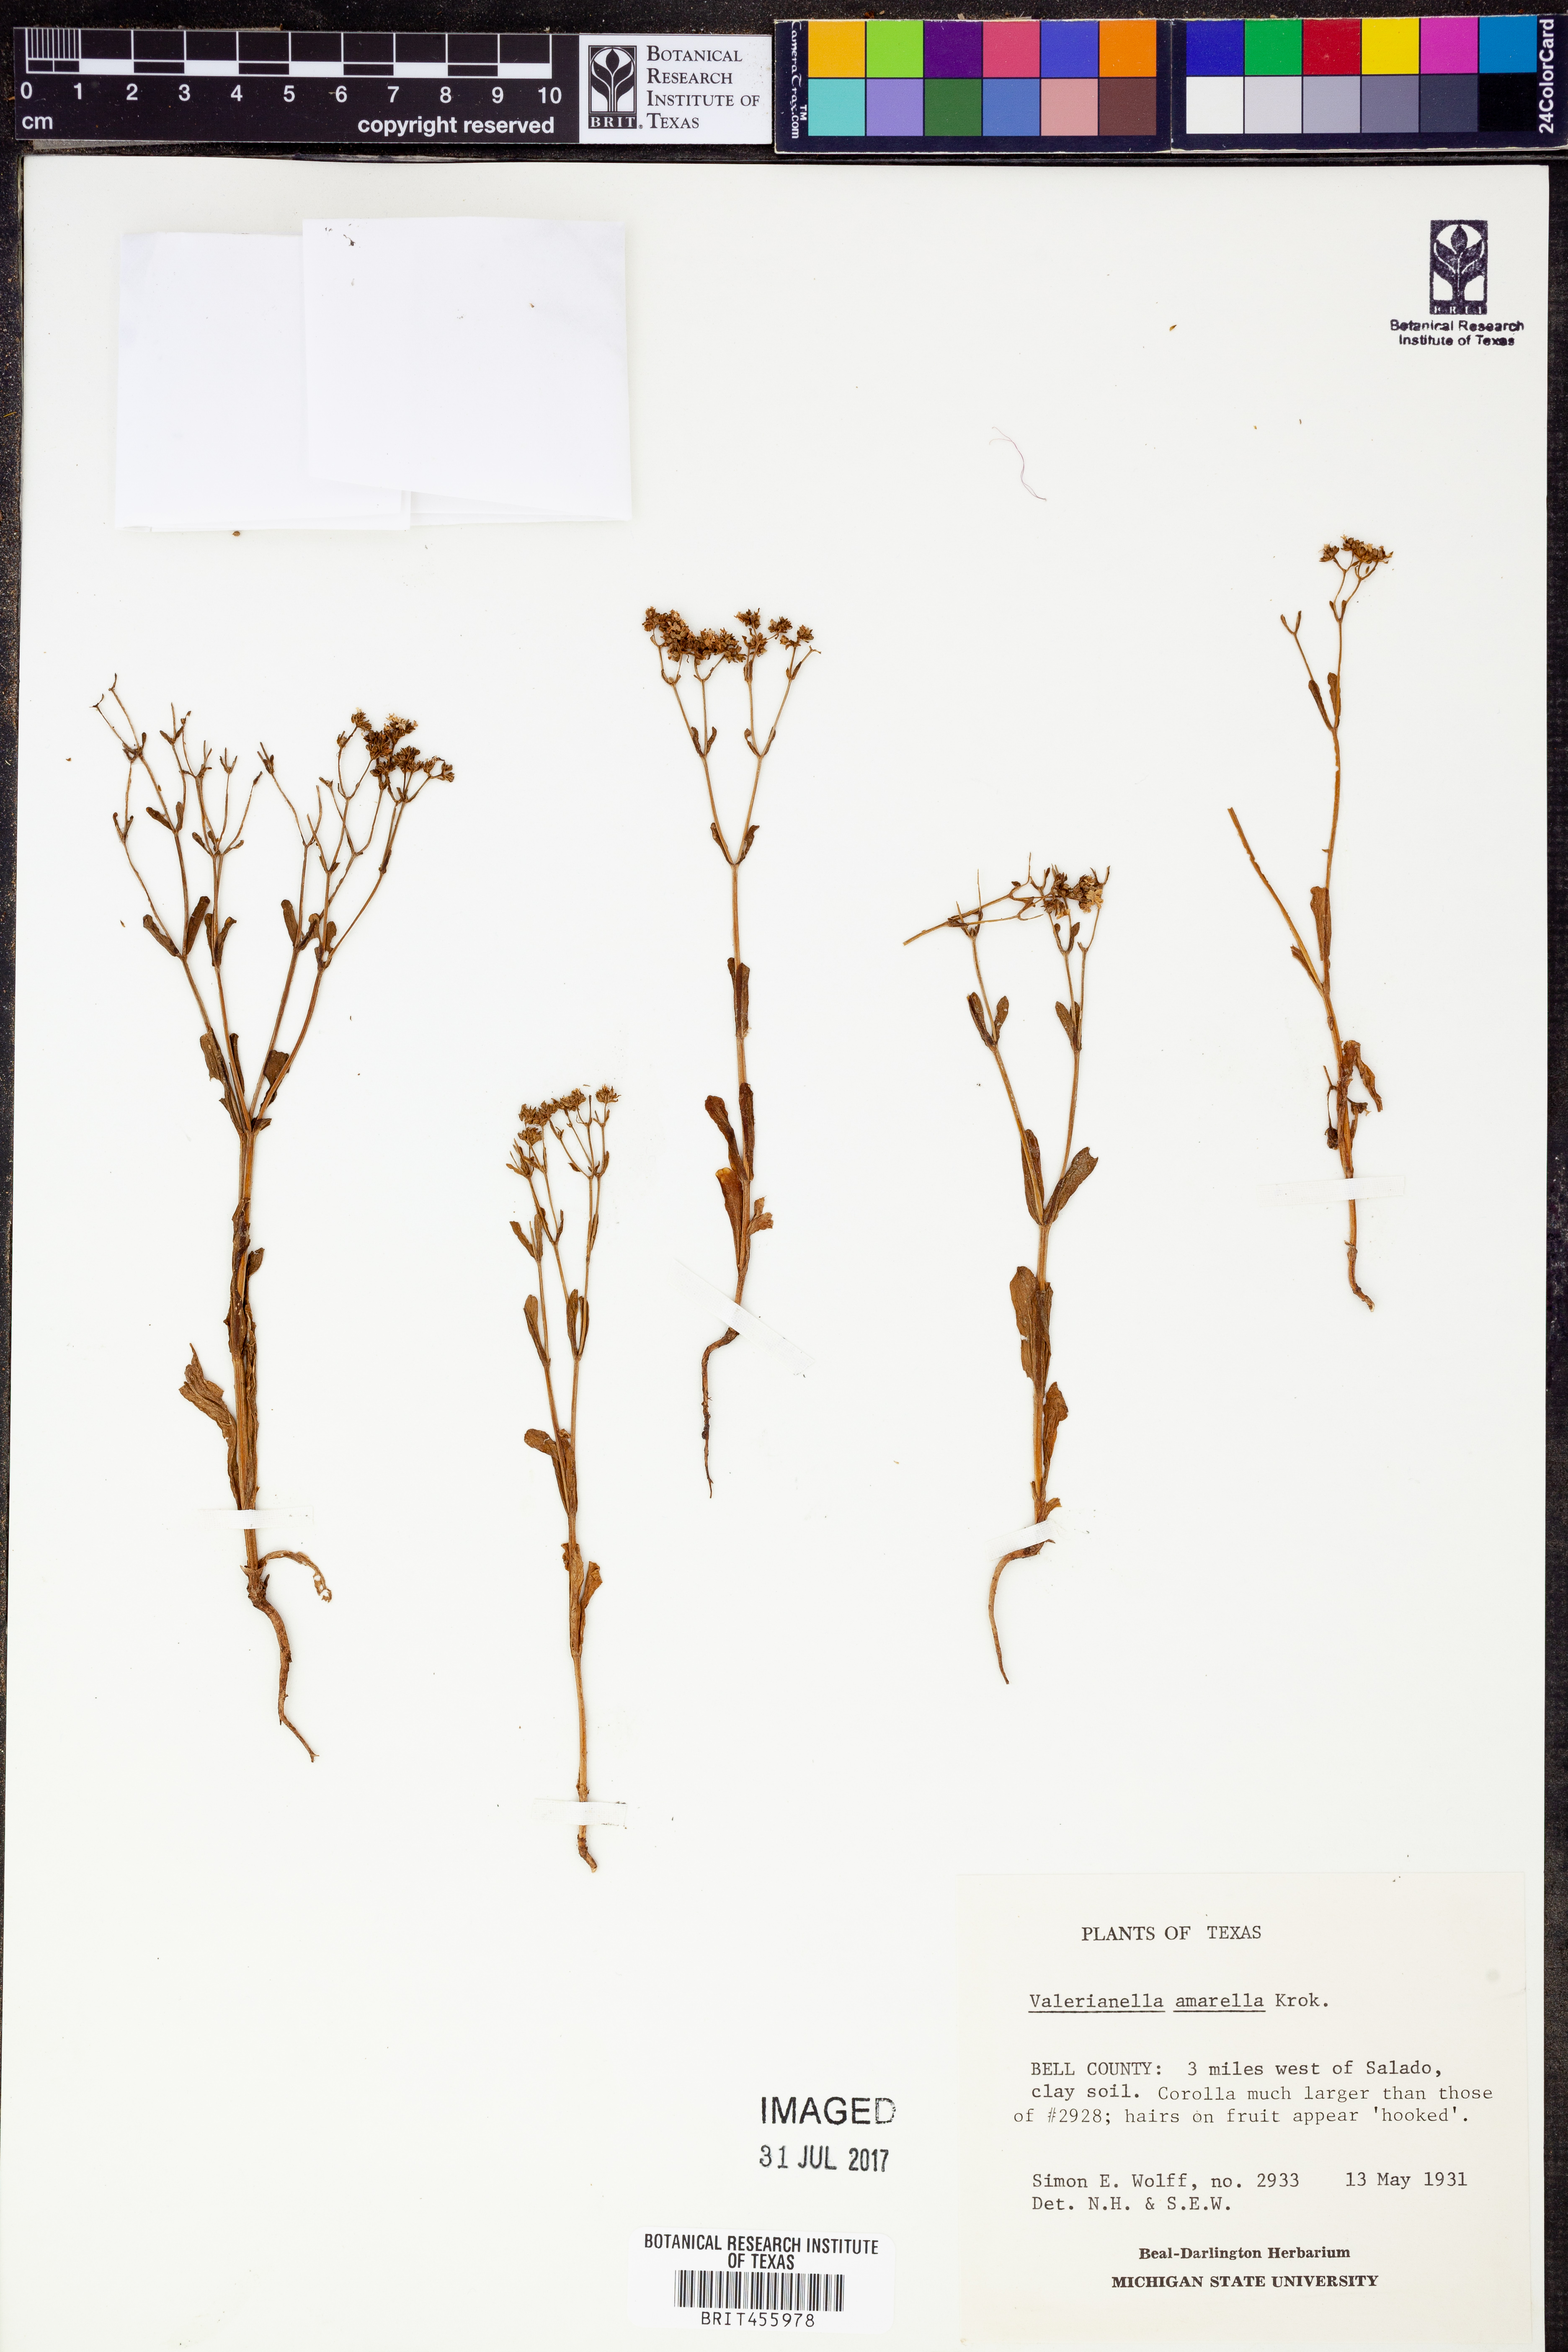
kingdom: Plantae
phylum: Tracheophyta
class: Magnoliopsida
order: Dipsacales
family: Caprifoliaceae
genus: Valerianella
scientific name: Valerianella amarella
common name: Hariy cornsalad
